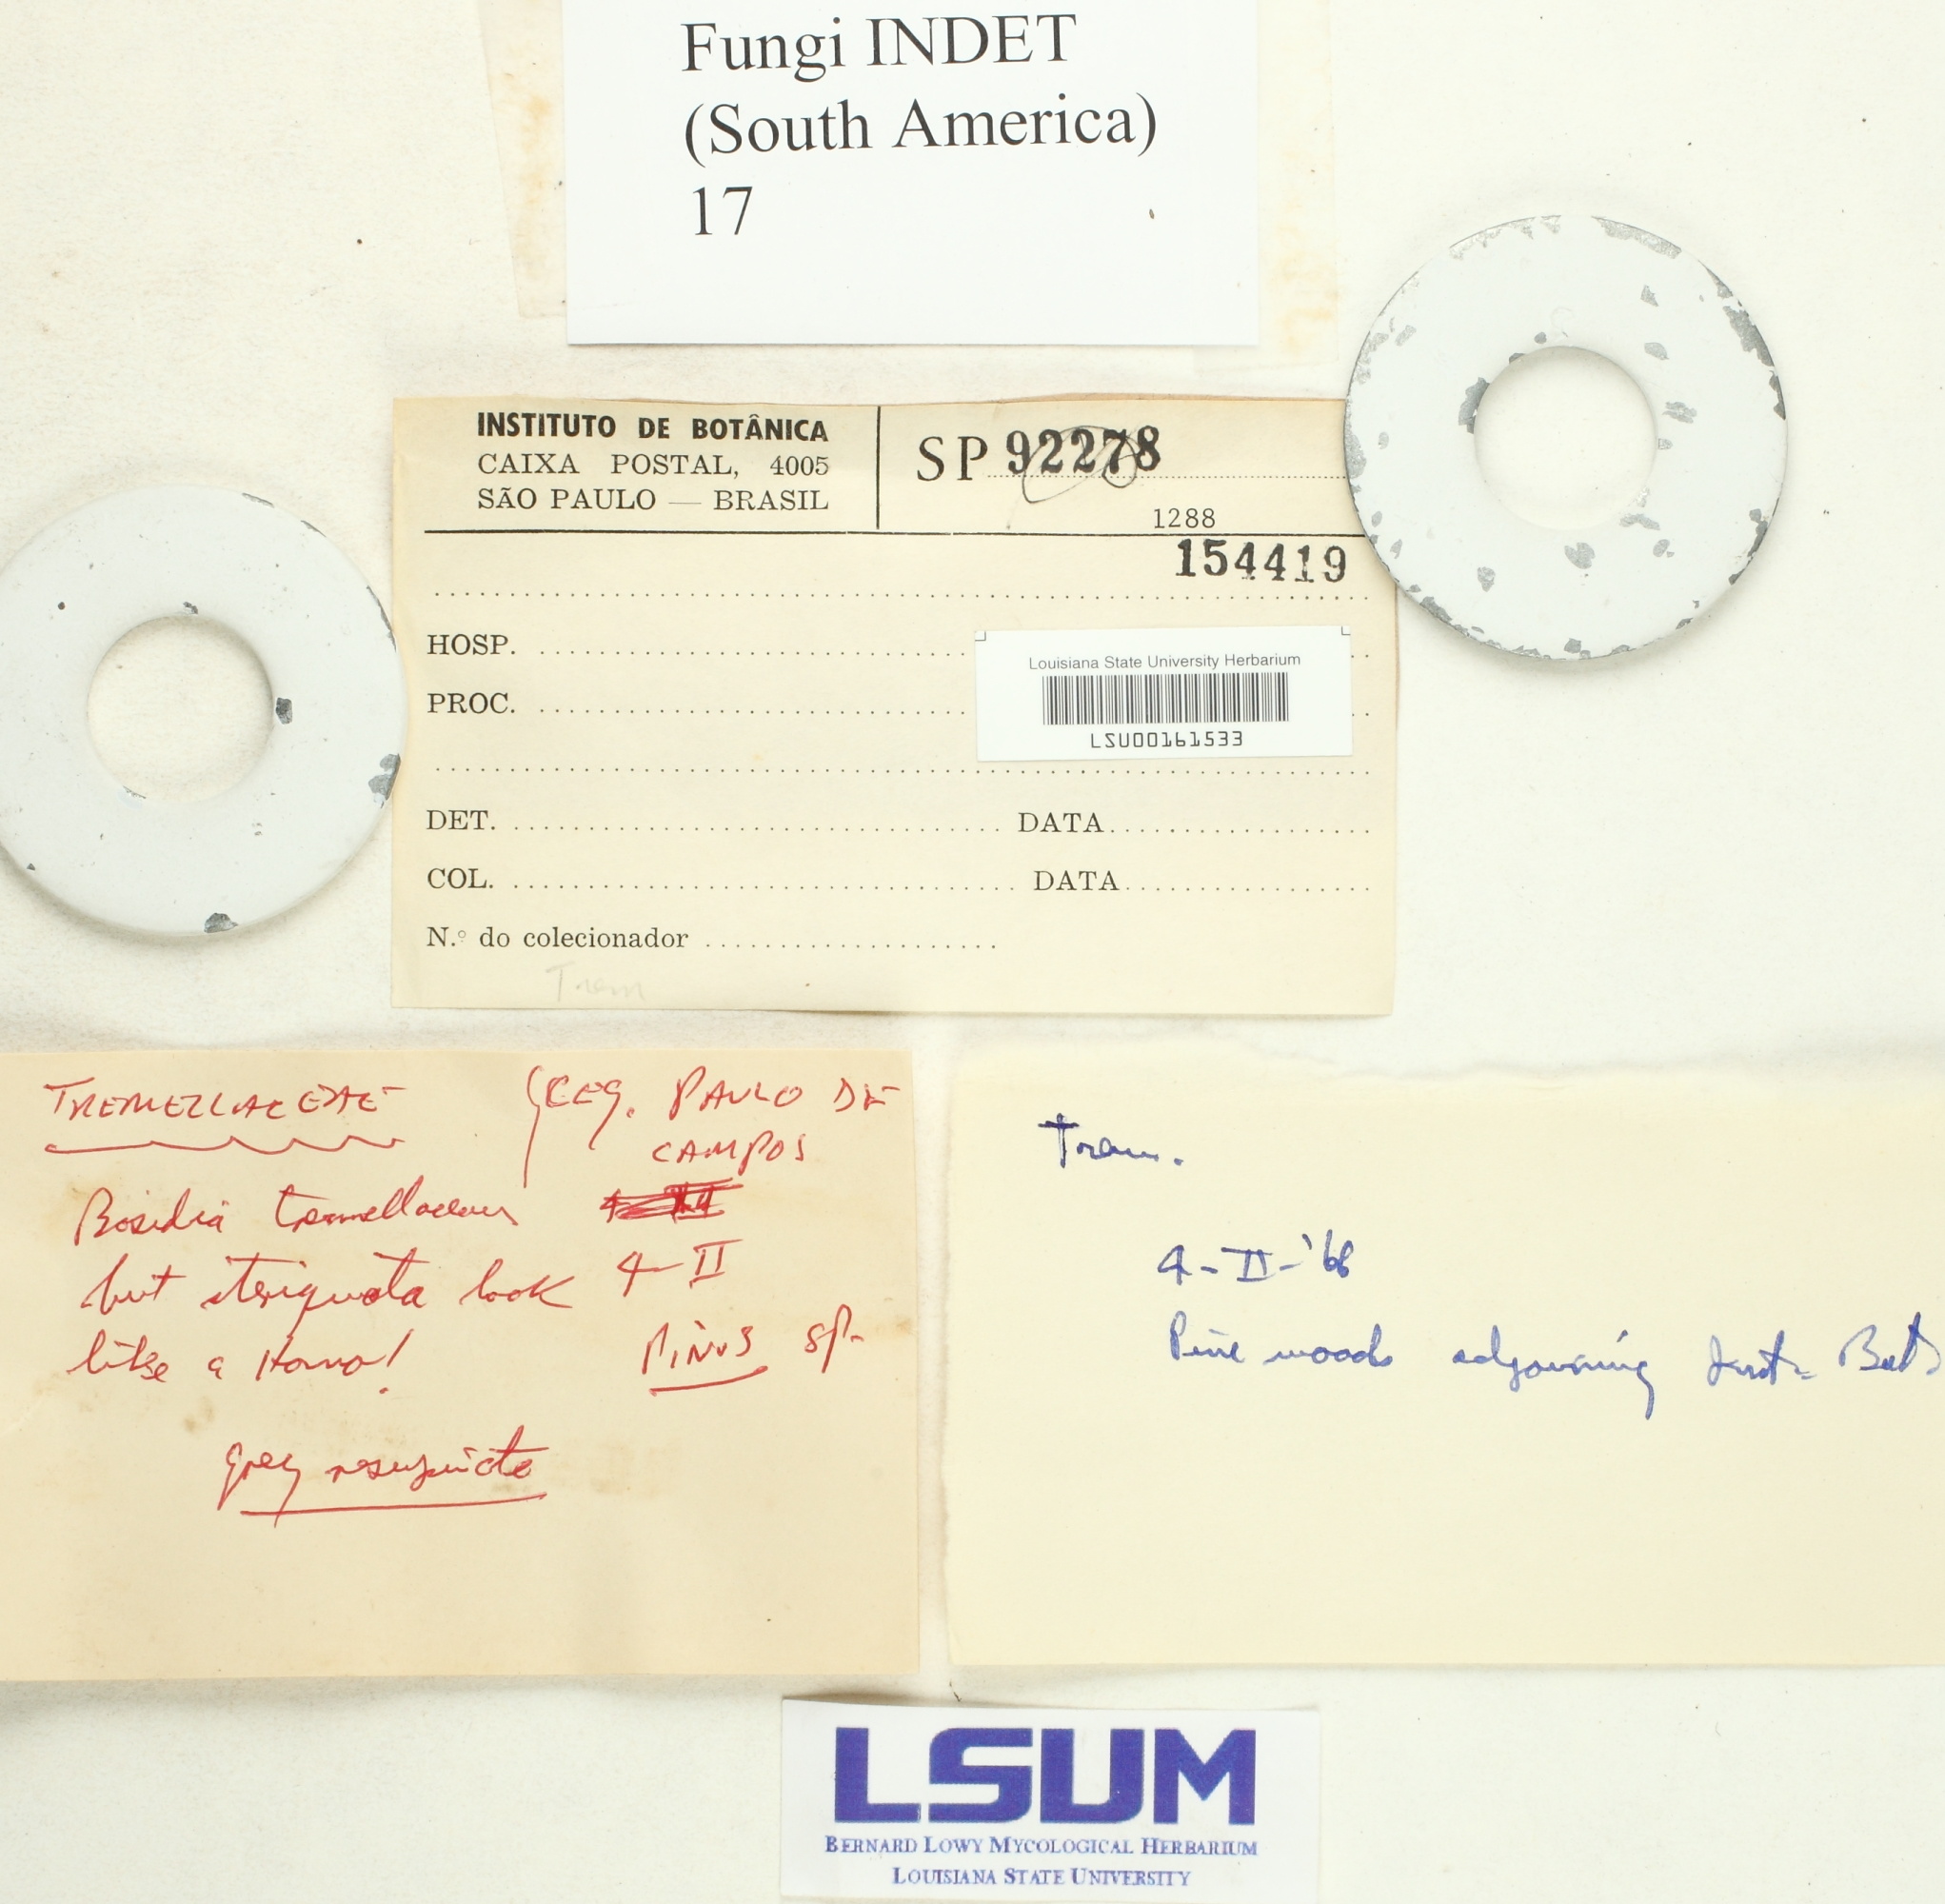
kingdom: Fungi
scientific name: Fungi
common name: Fungi
